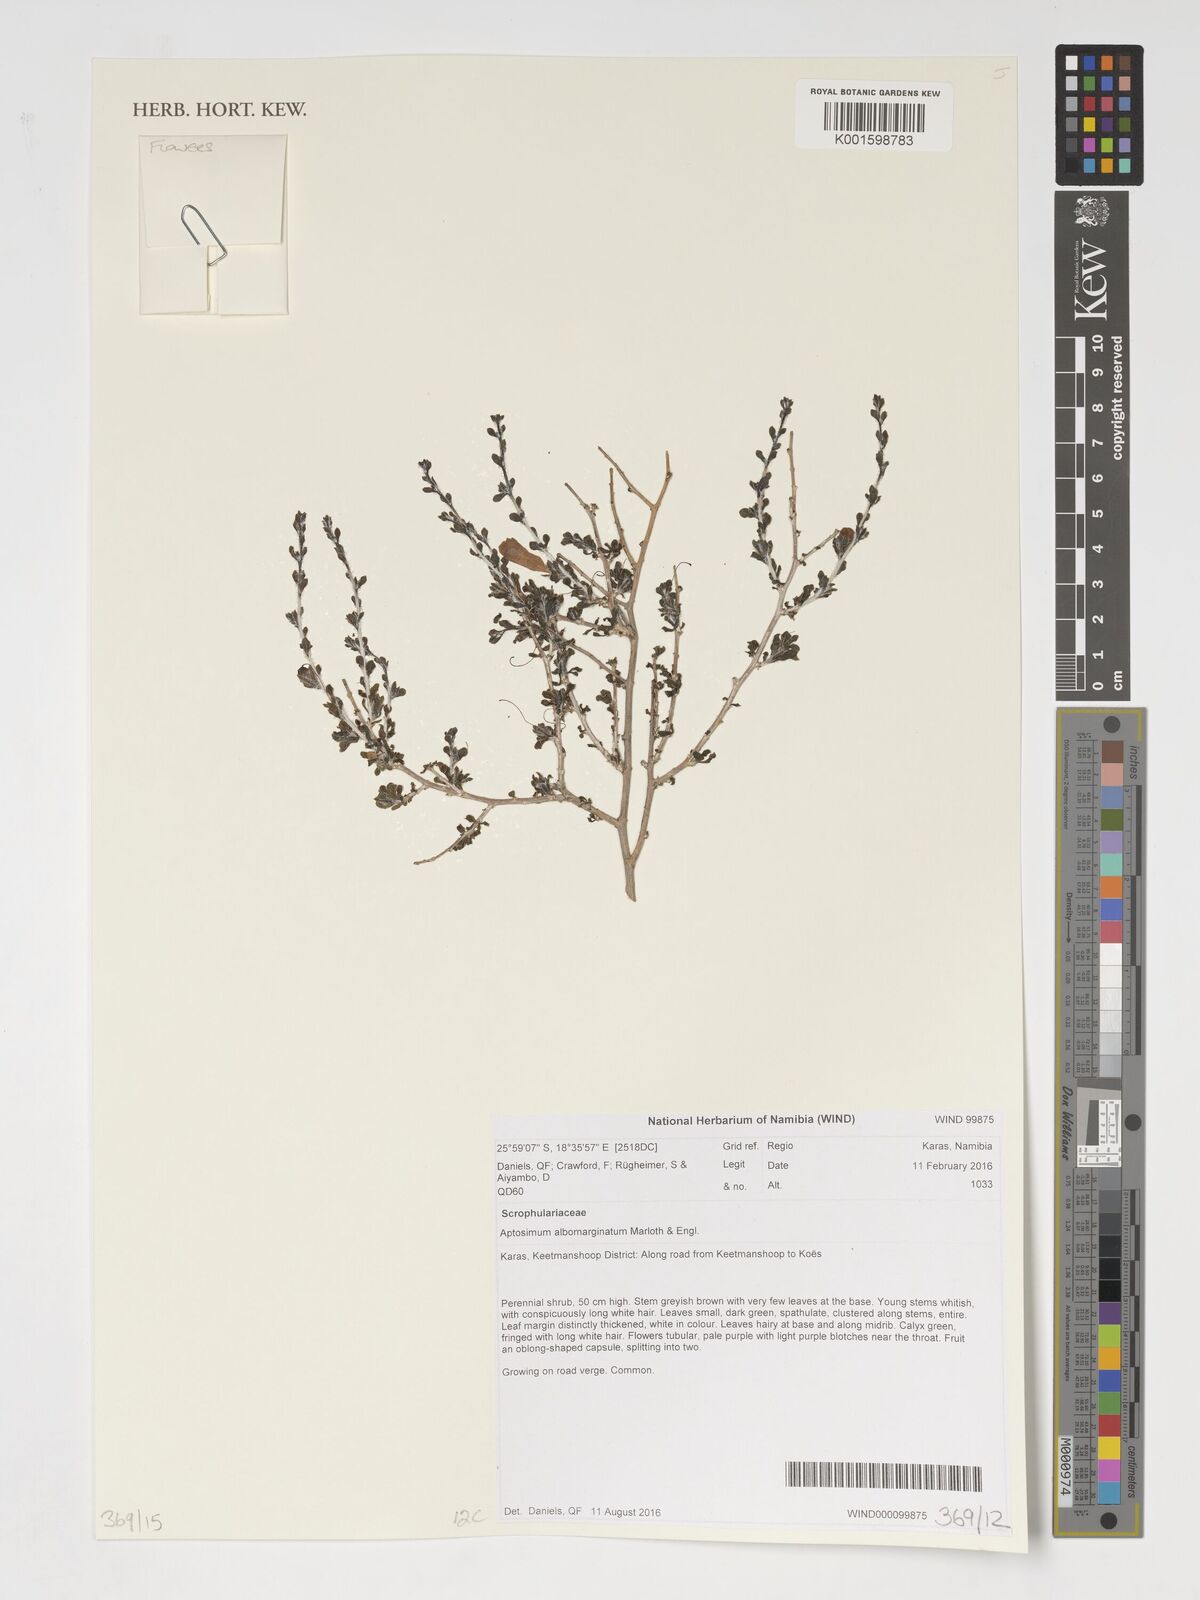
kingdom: Plantae
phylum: Tracheophyta
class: Magnoliopsida
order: Lamiales
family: Scrophulariaceae
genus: Aptosimum
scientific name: Aptosimum albomarginatum
